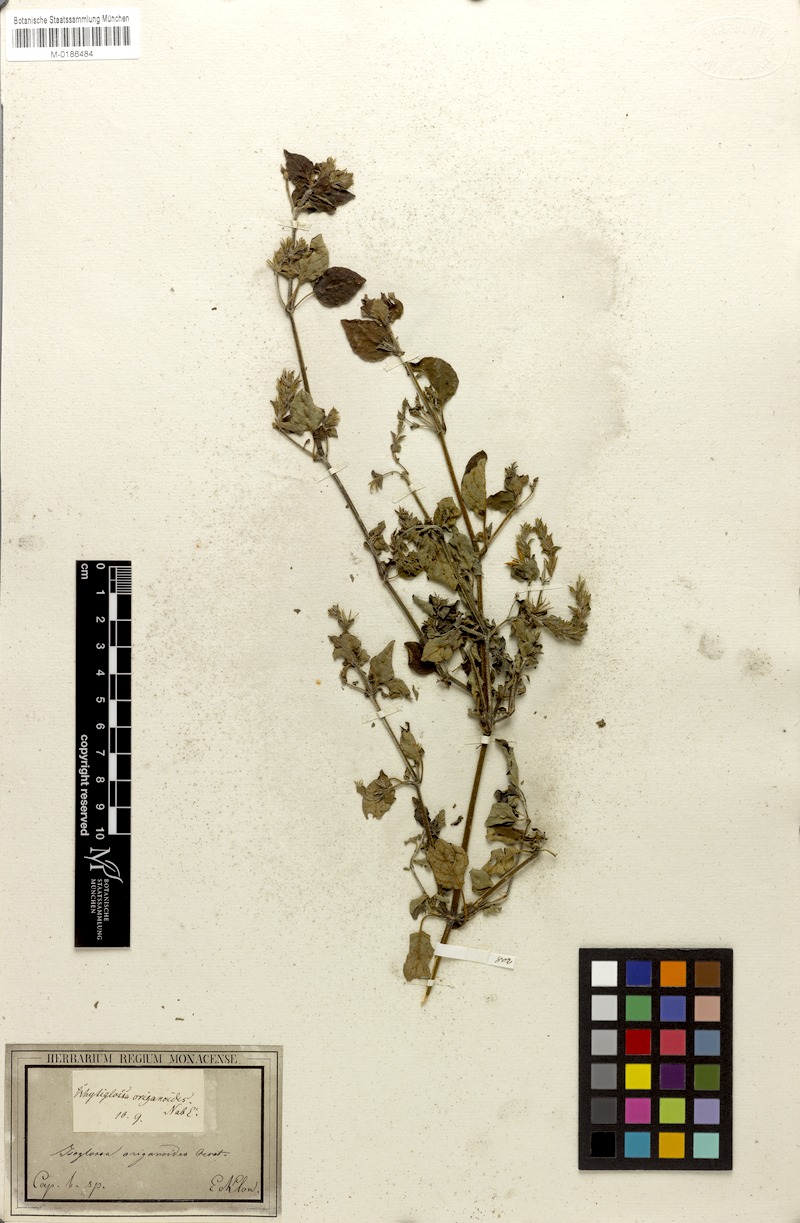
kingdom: Plantae
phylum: Tracheophyta
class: Magnoliopsida
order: Lamiales
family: Acanthaceae
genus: Isoglossa
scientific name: Isoglossa origanoides
